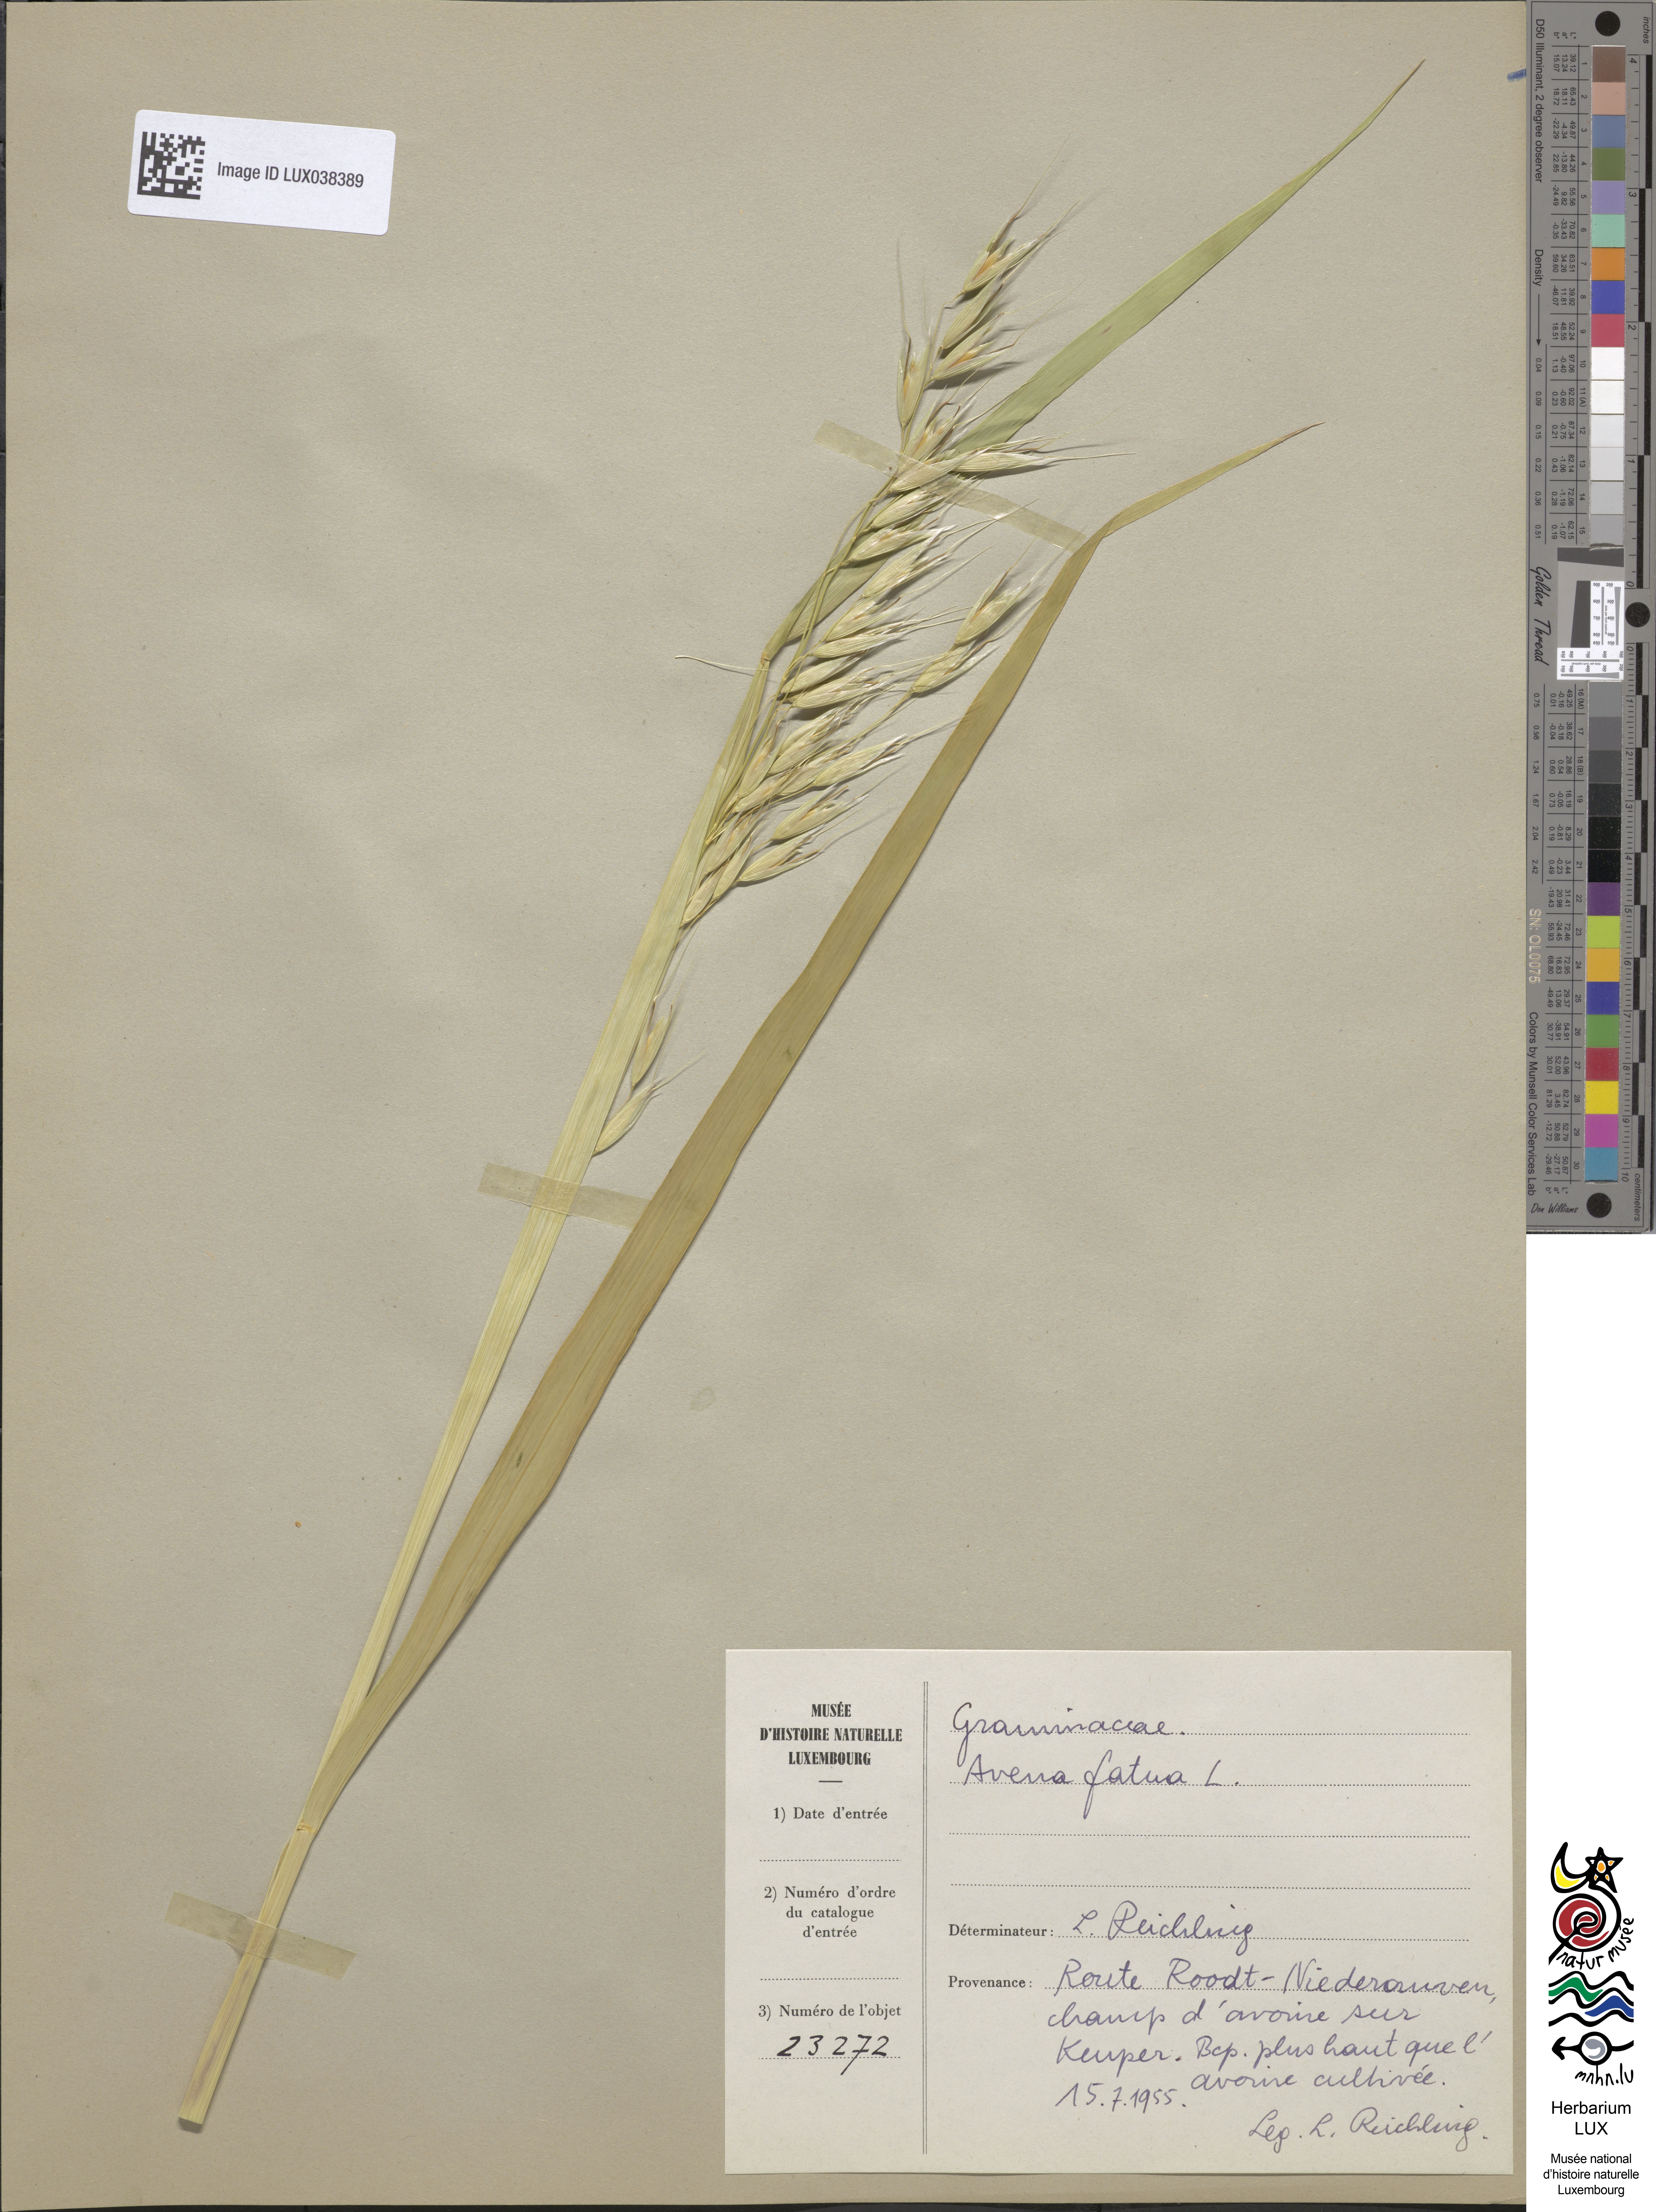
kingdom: Plantae
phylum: Tracheophyta
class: Liliopsida
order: Poales
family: Poaceae
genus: Avena
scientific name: Avena fatua
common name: Wild oat
